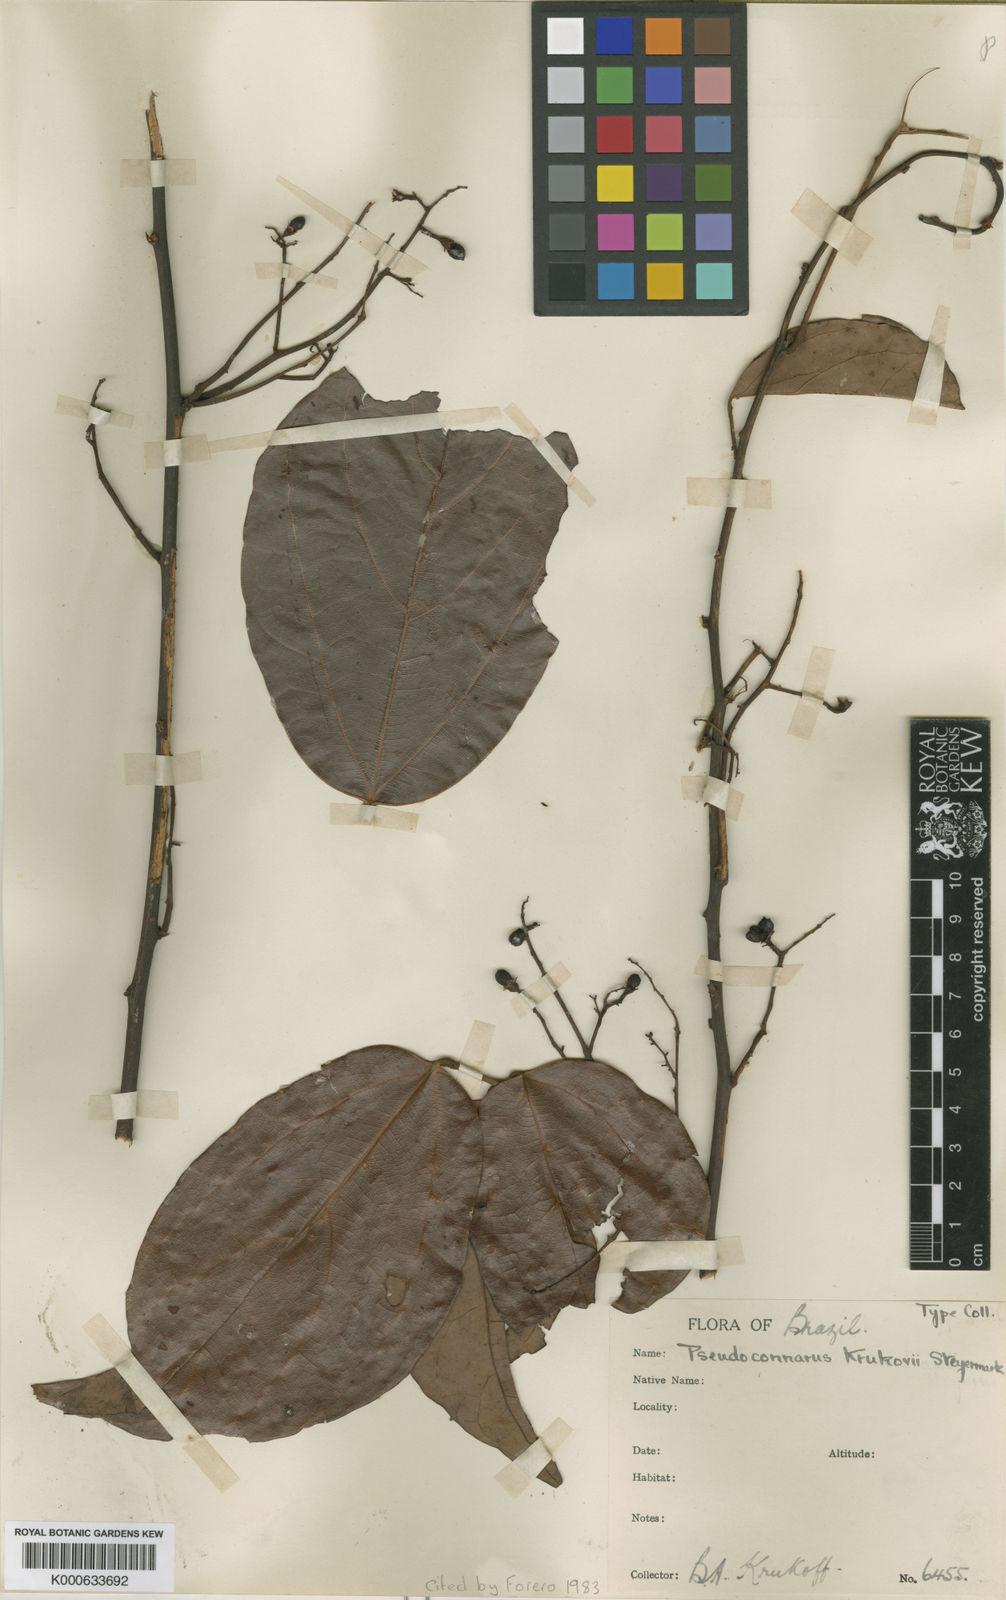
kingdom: Plantae
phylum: Tracheophyta
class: Magnoliopsida
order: Oxalidales
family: Connaraceae
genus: Pseudoconnarus
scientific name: Pseudoconnarus macrophyllus
